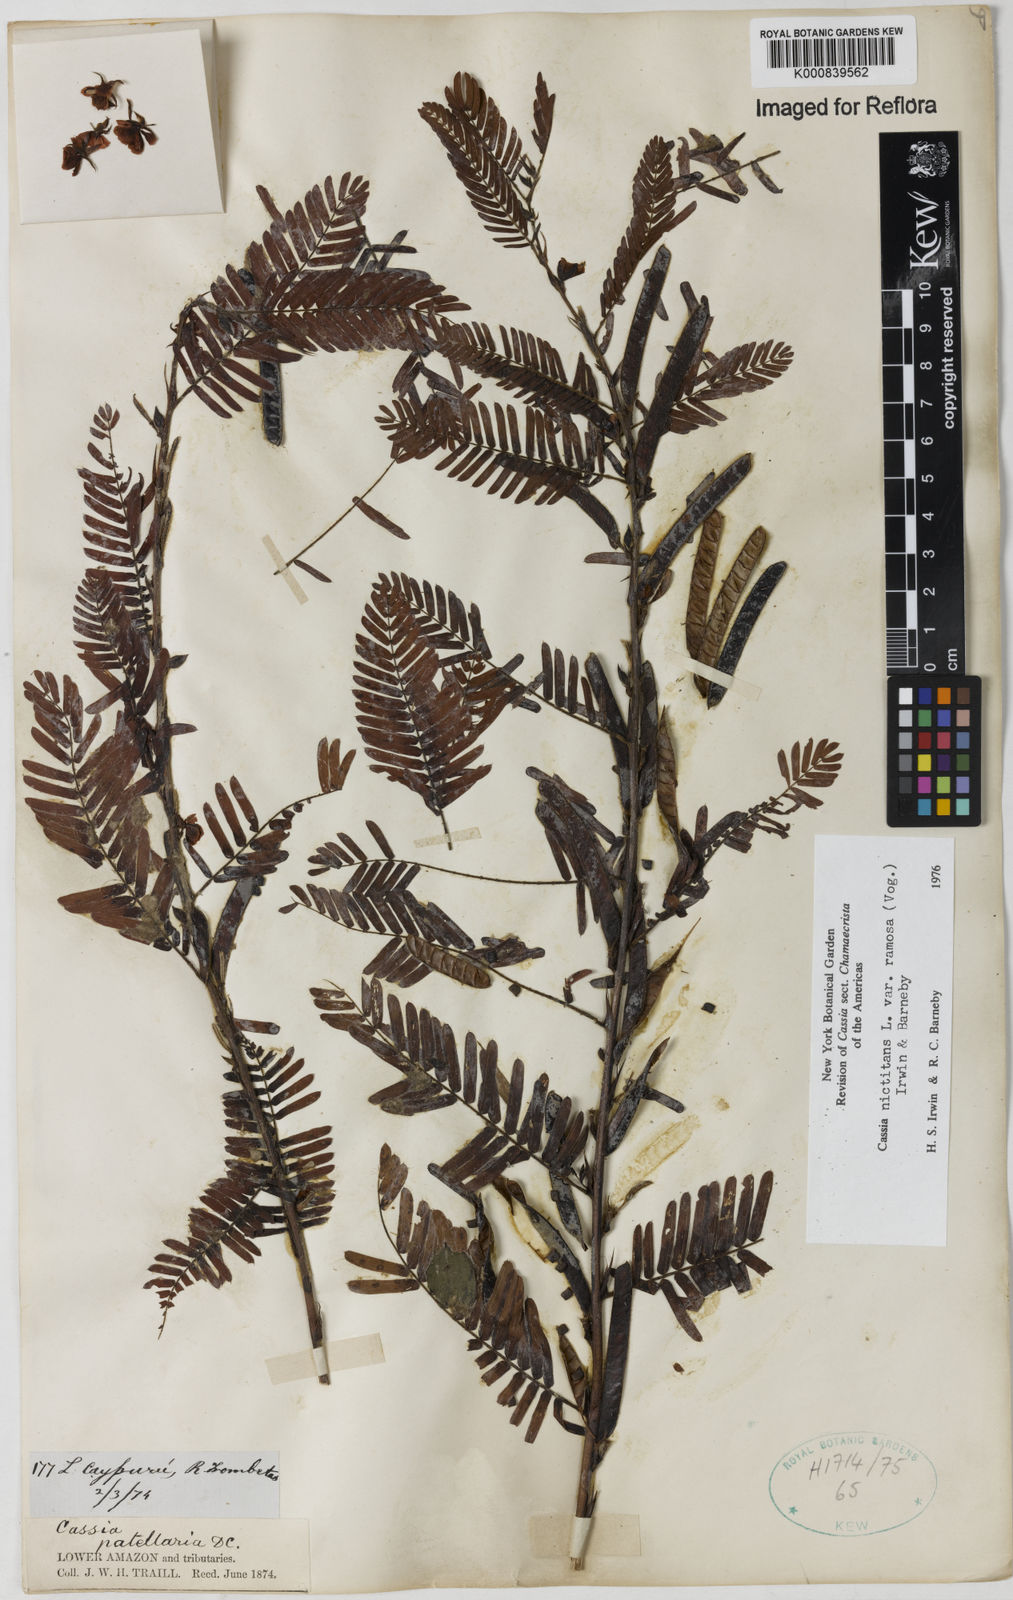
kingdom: Plantae
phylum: Tracheophyta
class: Magnoliopsida
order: Fabales
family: Fabaceae
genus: Chamaecrista
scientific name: Chamaecrista nictitans
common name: Sensitive cassia
